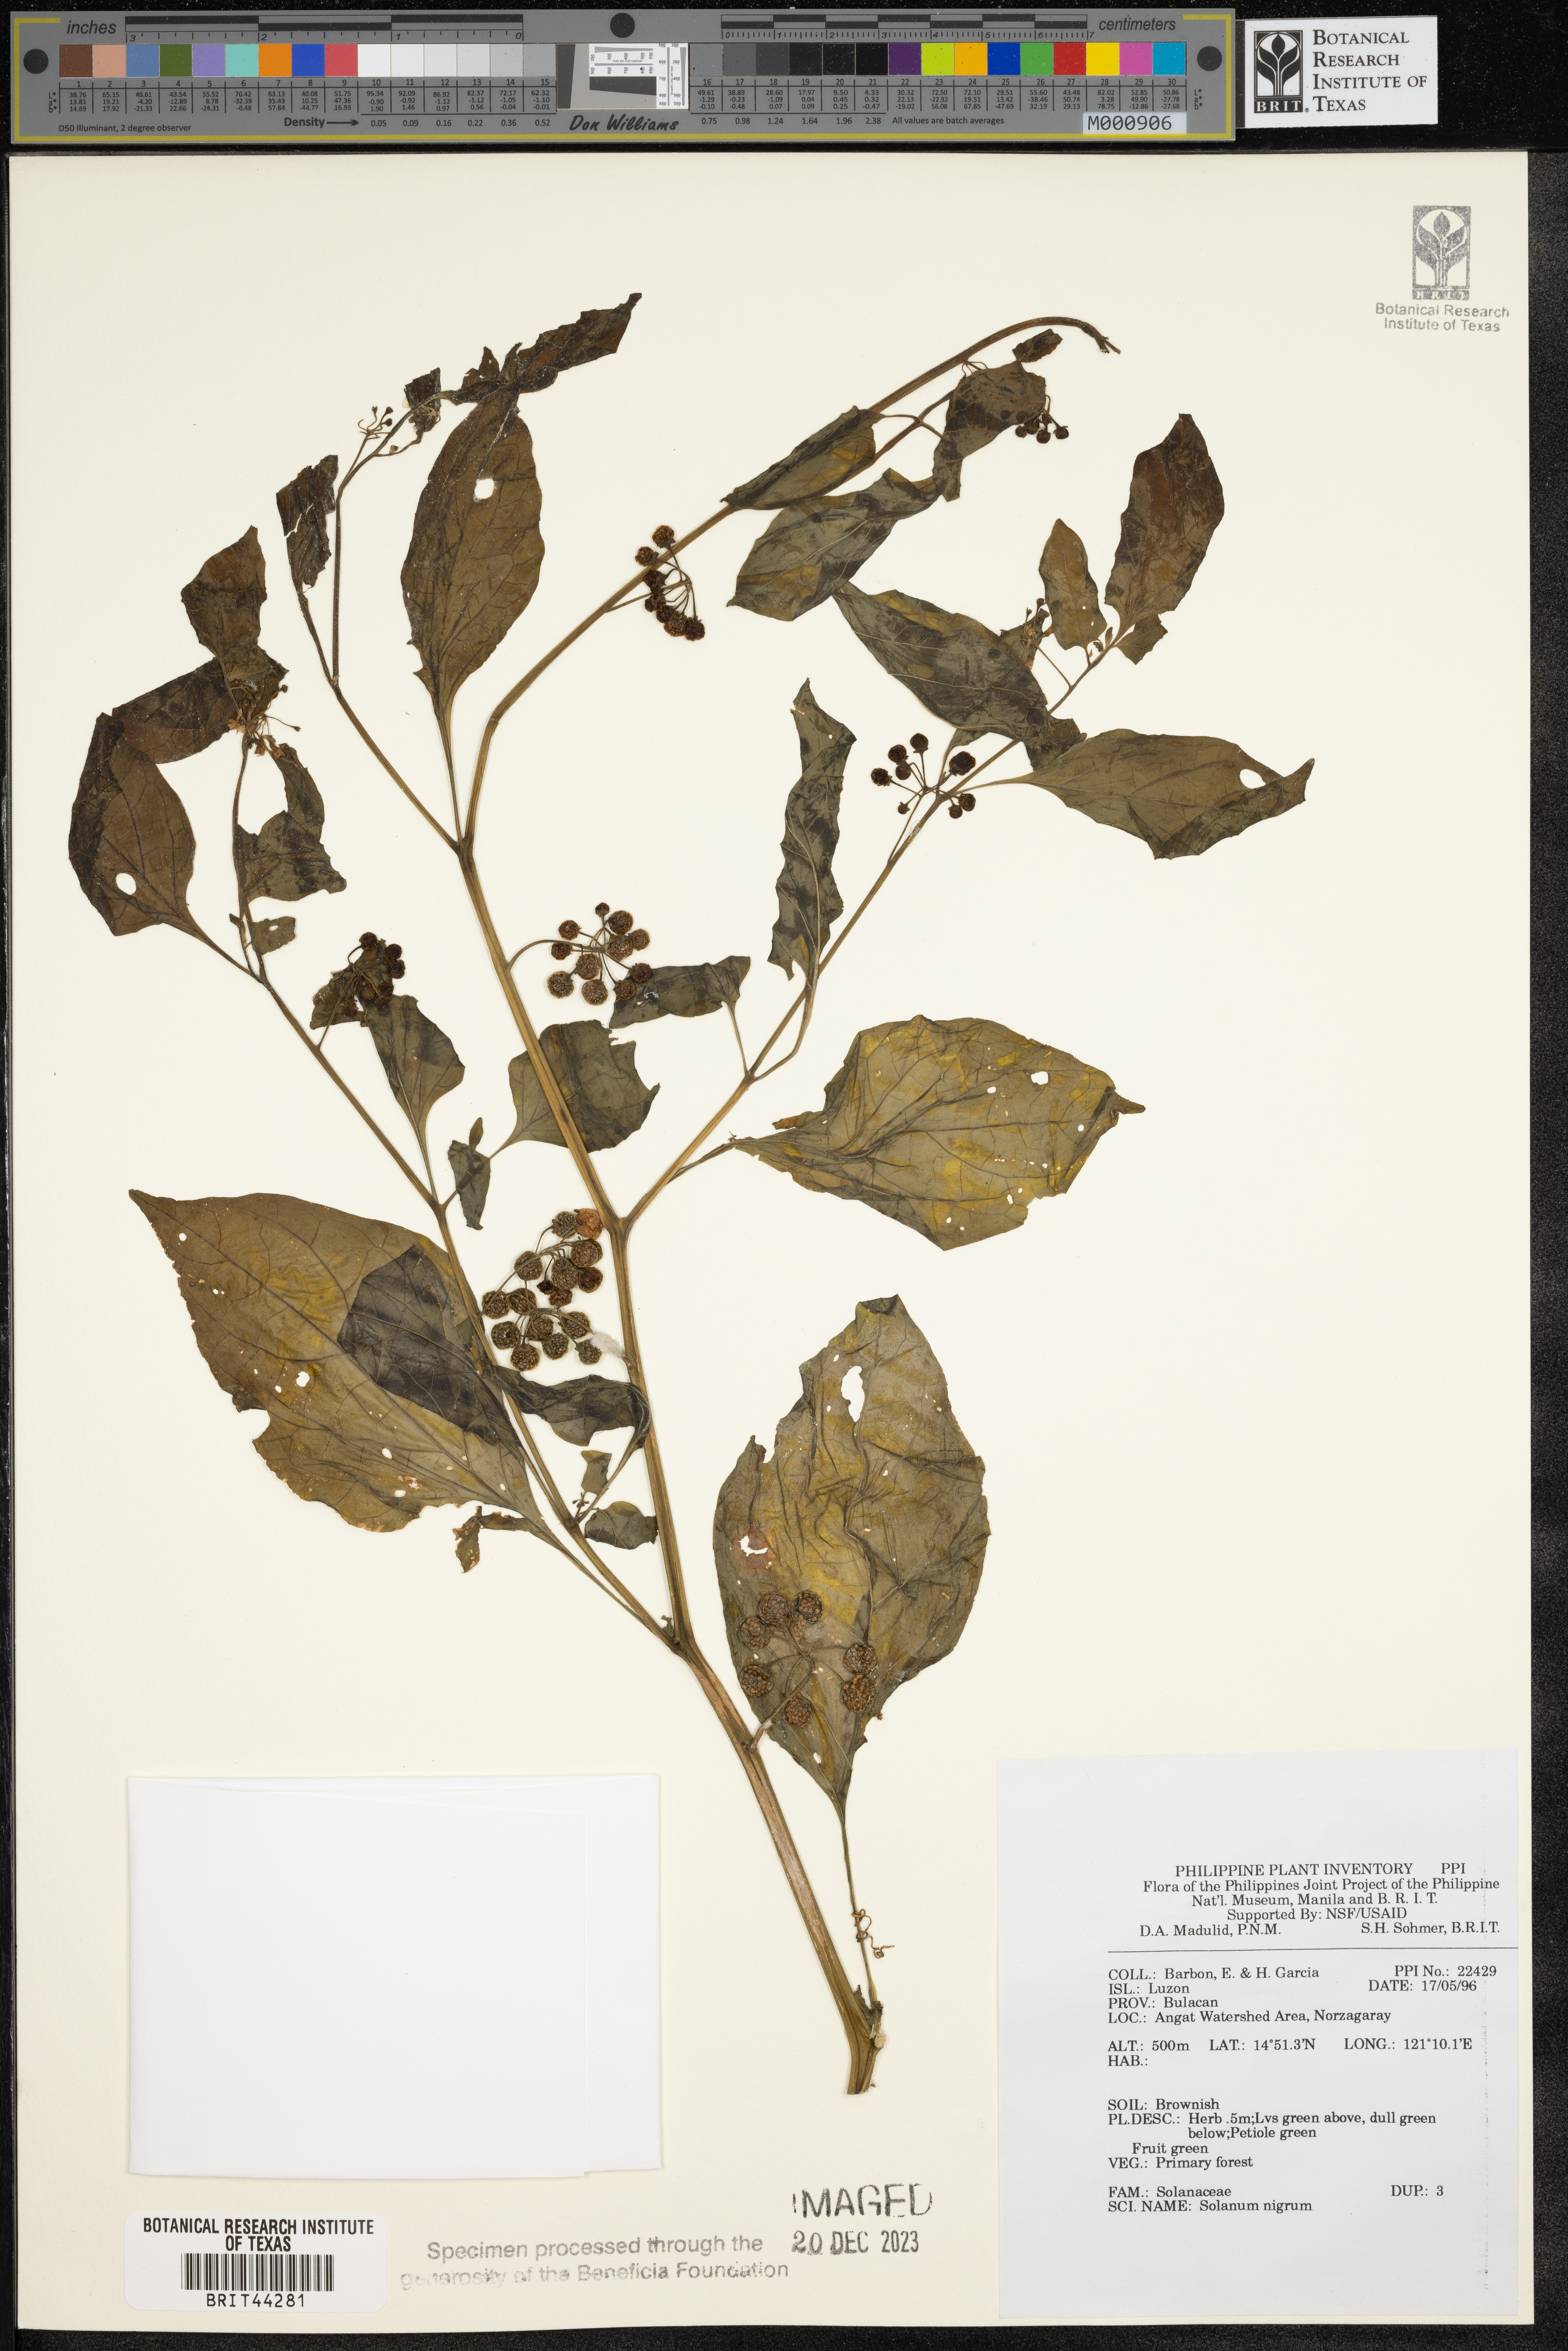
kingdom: Plantae
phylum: Tracheophyta
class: Magnoliopsida
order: Solanales
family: Solanaceae
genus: Solanum
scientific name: Solanum nigrum
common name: Black nightshade
